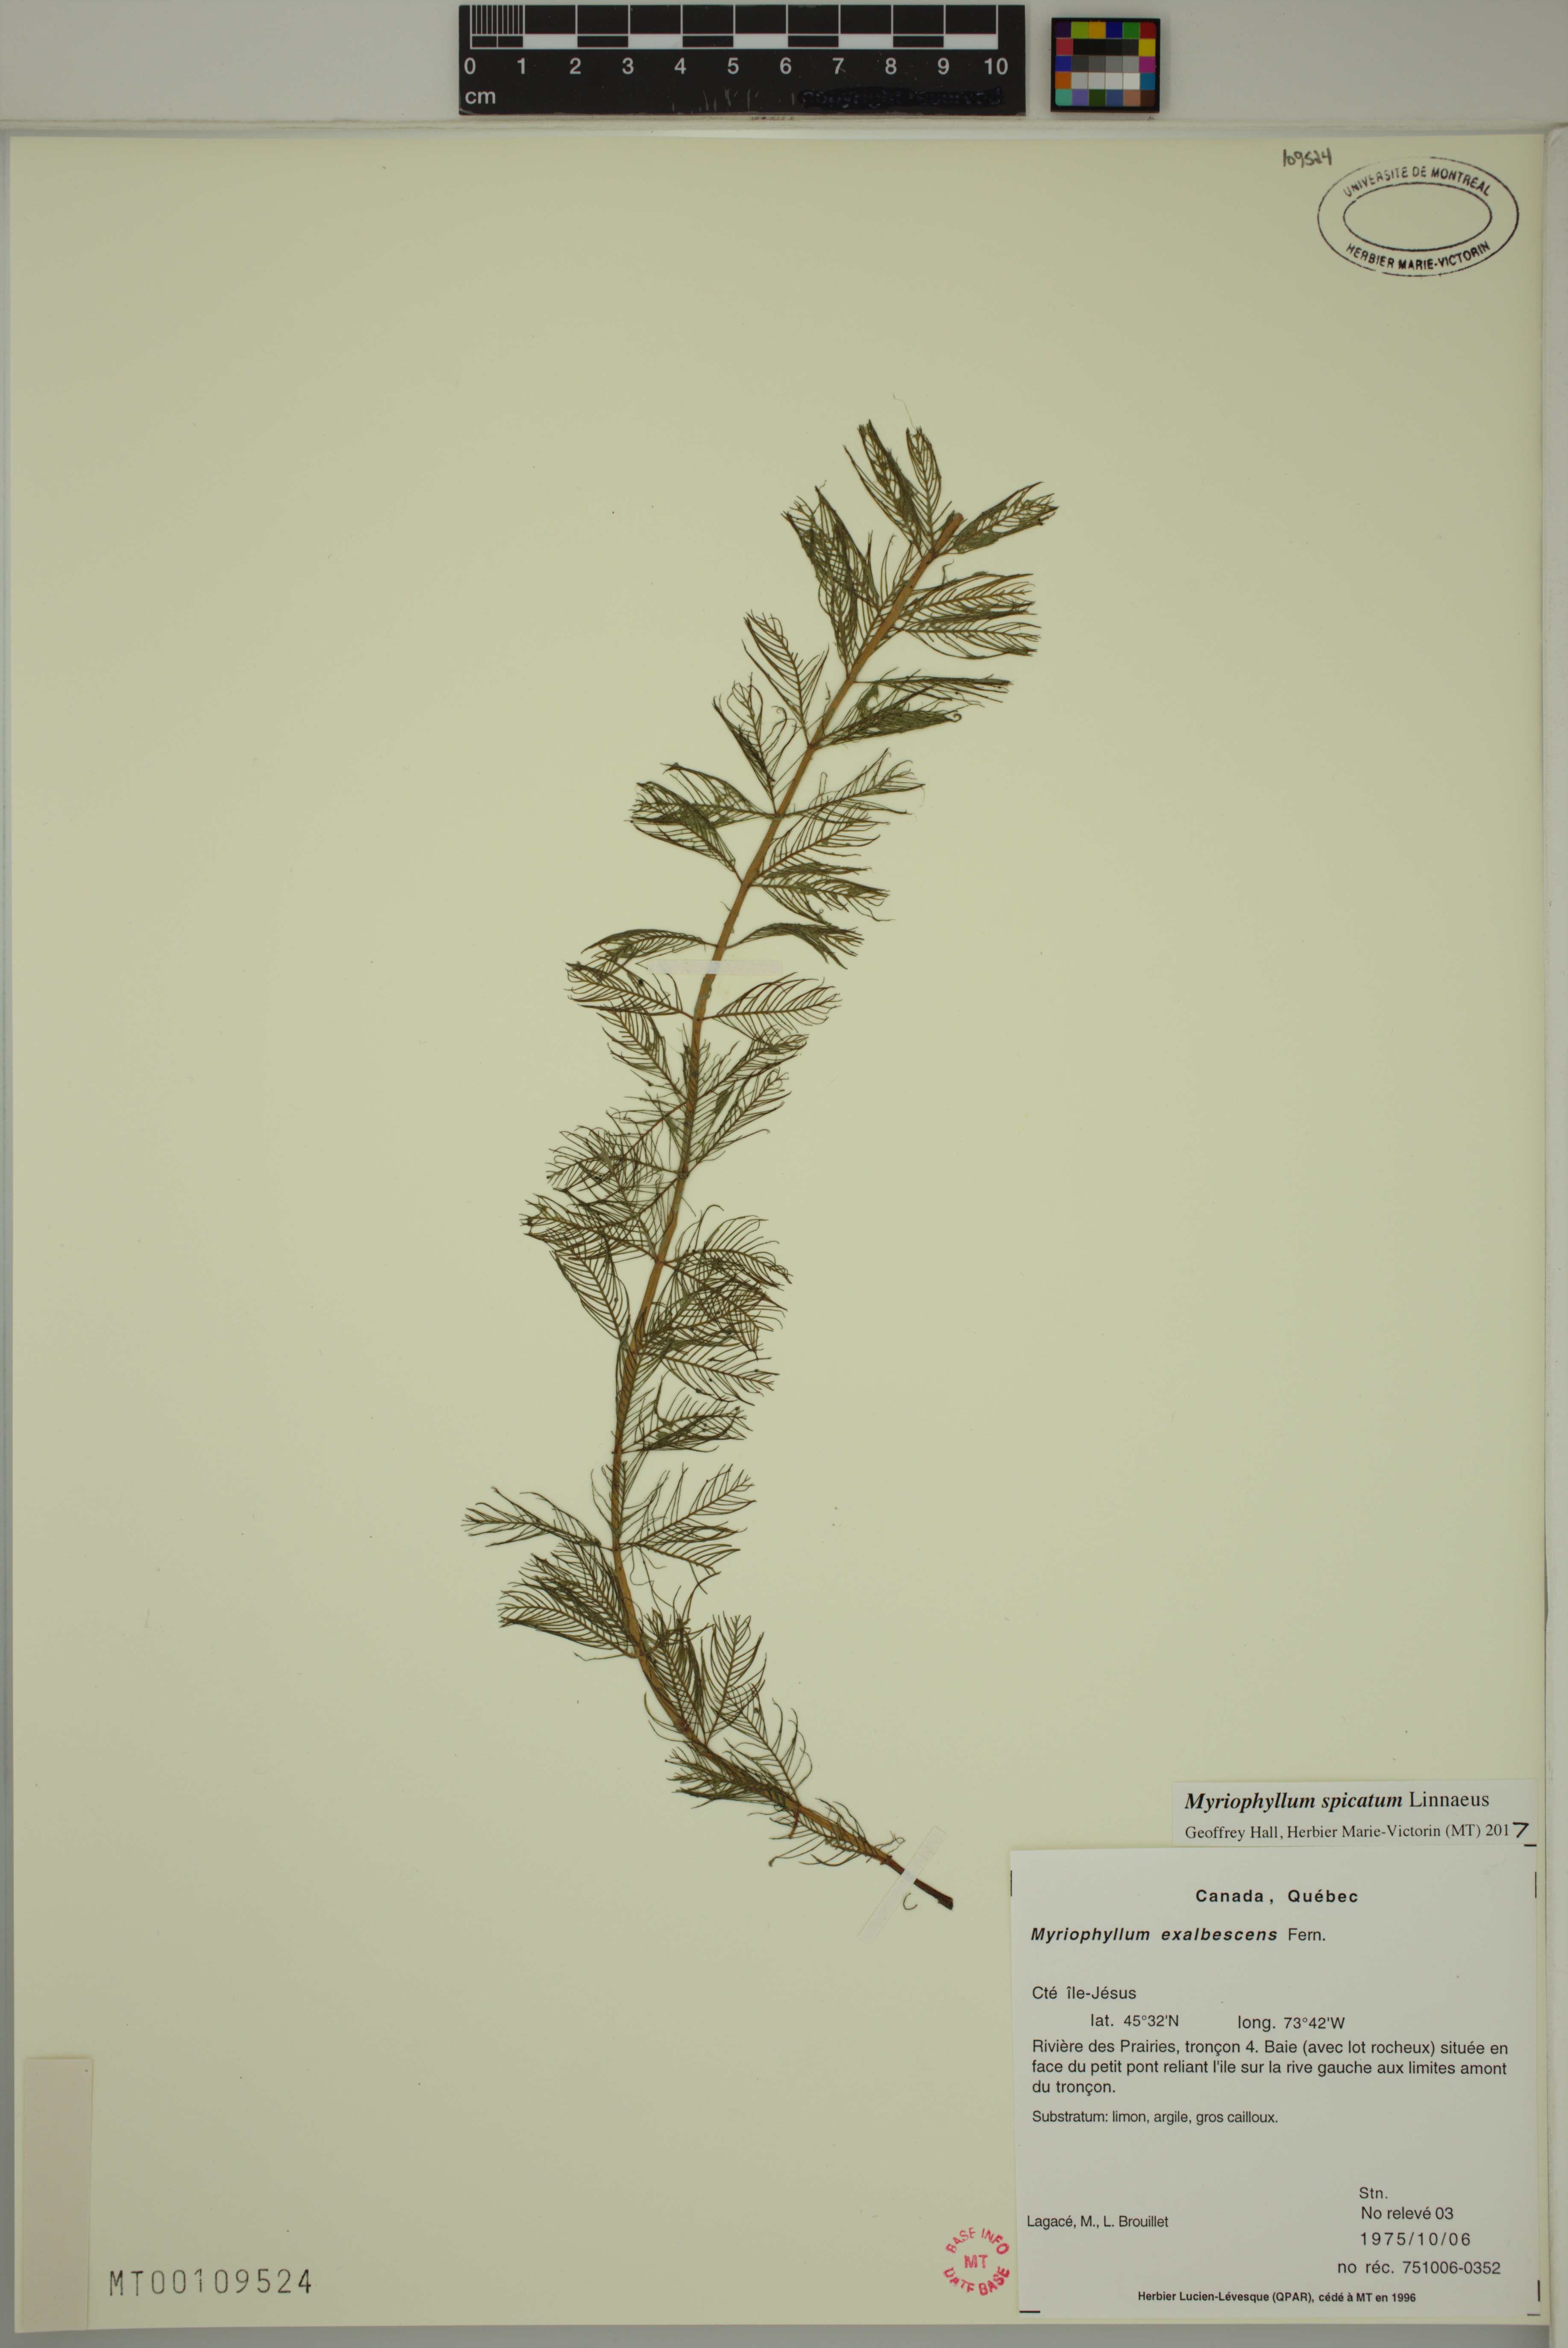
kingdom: Plantae
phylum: Tracheophyta
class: Magnoliopsida
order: Saxifragales
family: Haloragaceae
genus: Myriophyllum
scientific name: Myriophyllum spicatum
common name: Spiked water-milfoil
